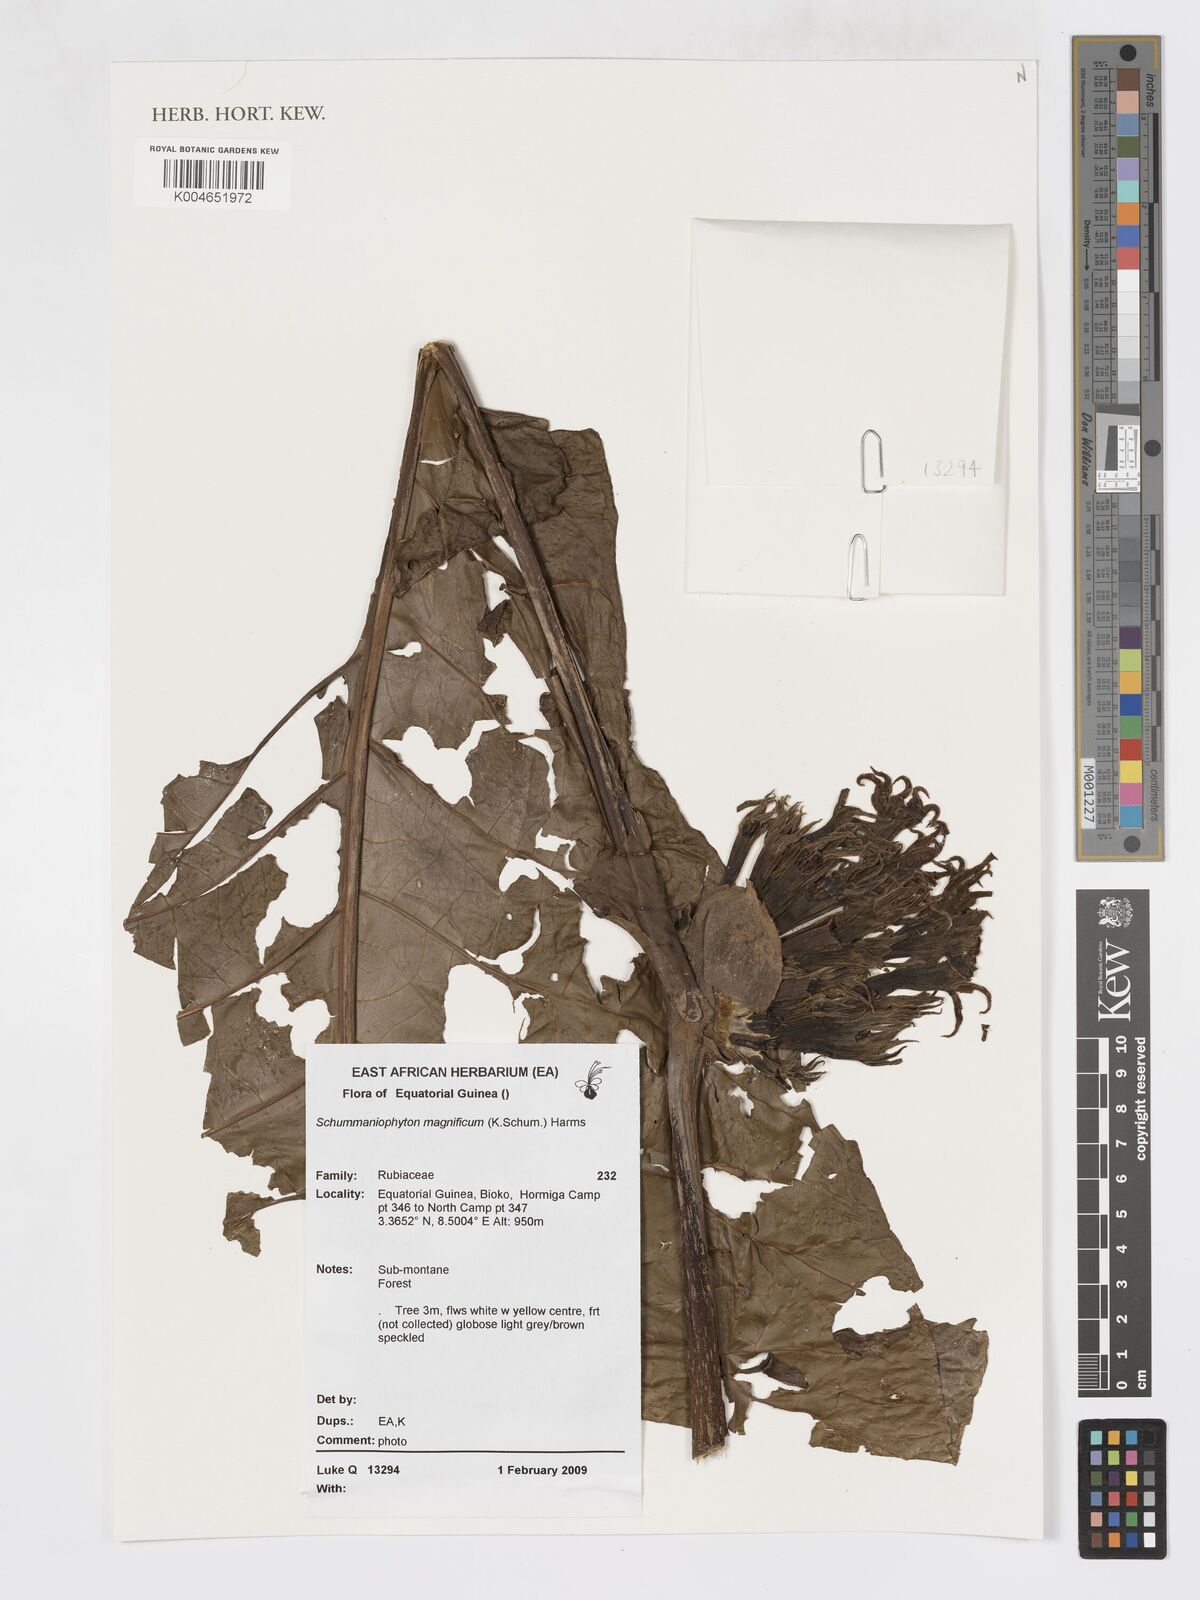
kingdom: Plantae
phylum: Tracheophyta
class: Magnoliopsida
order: Gentianales
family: Rubiaceae
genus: Schumanniophyton
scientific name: Schumanniophyton magnificum
